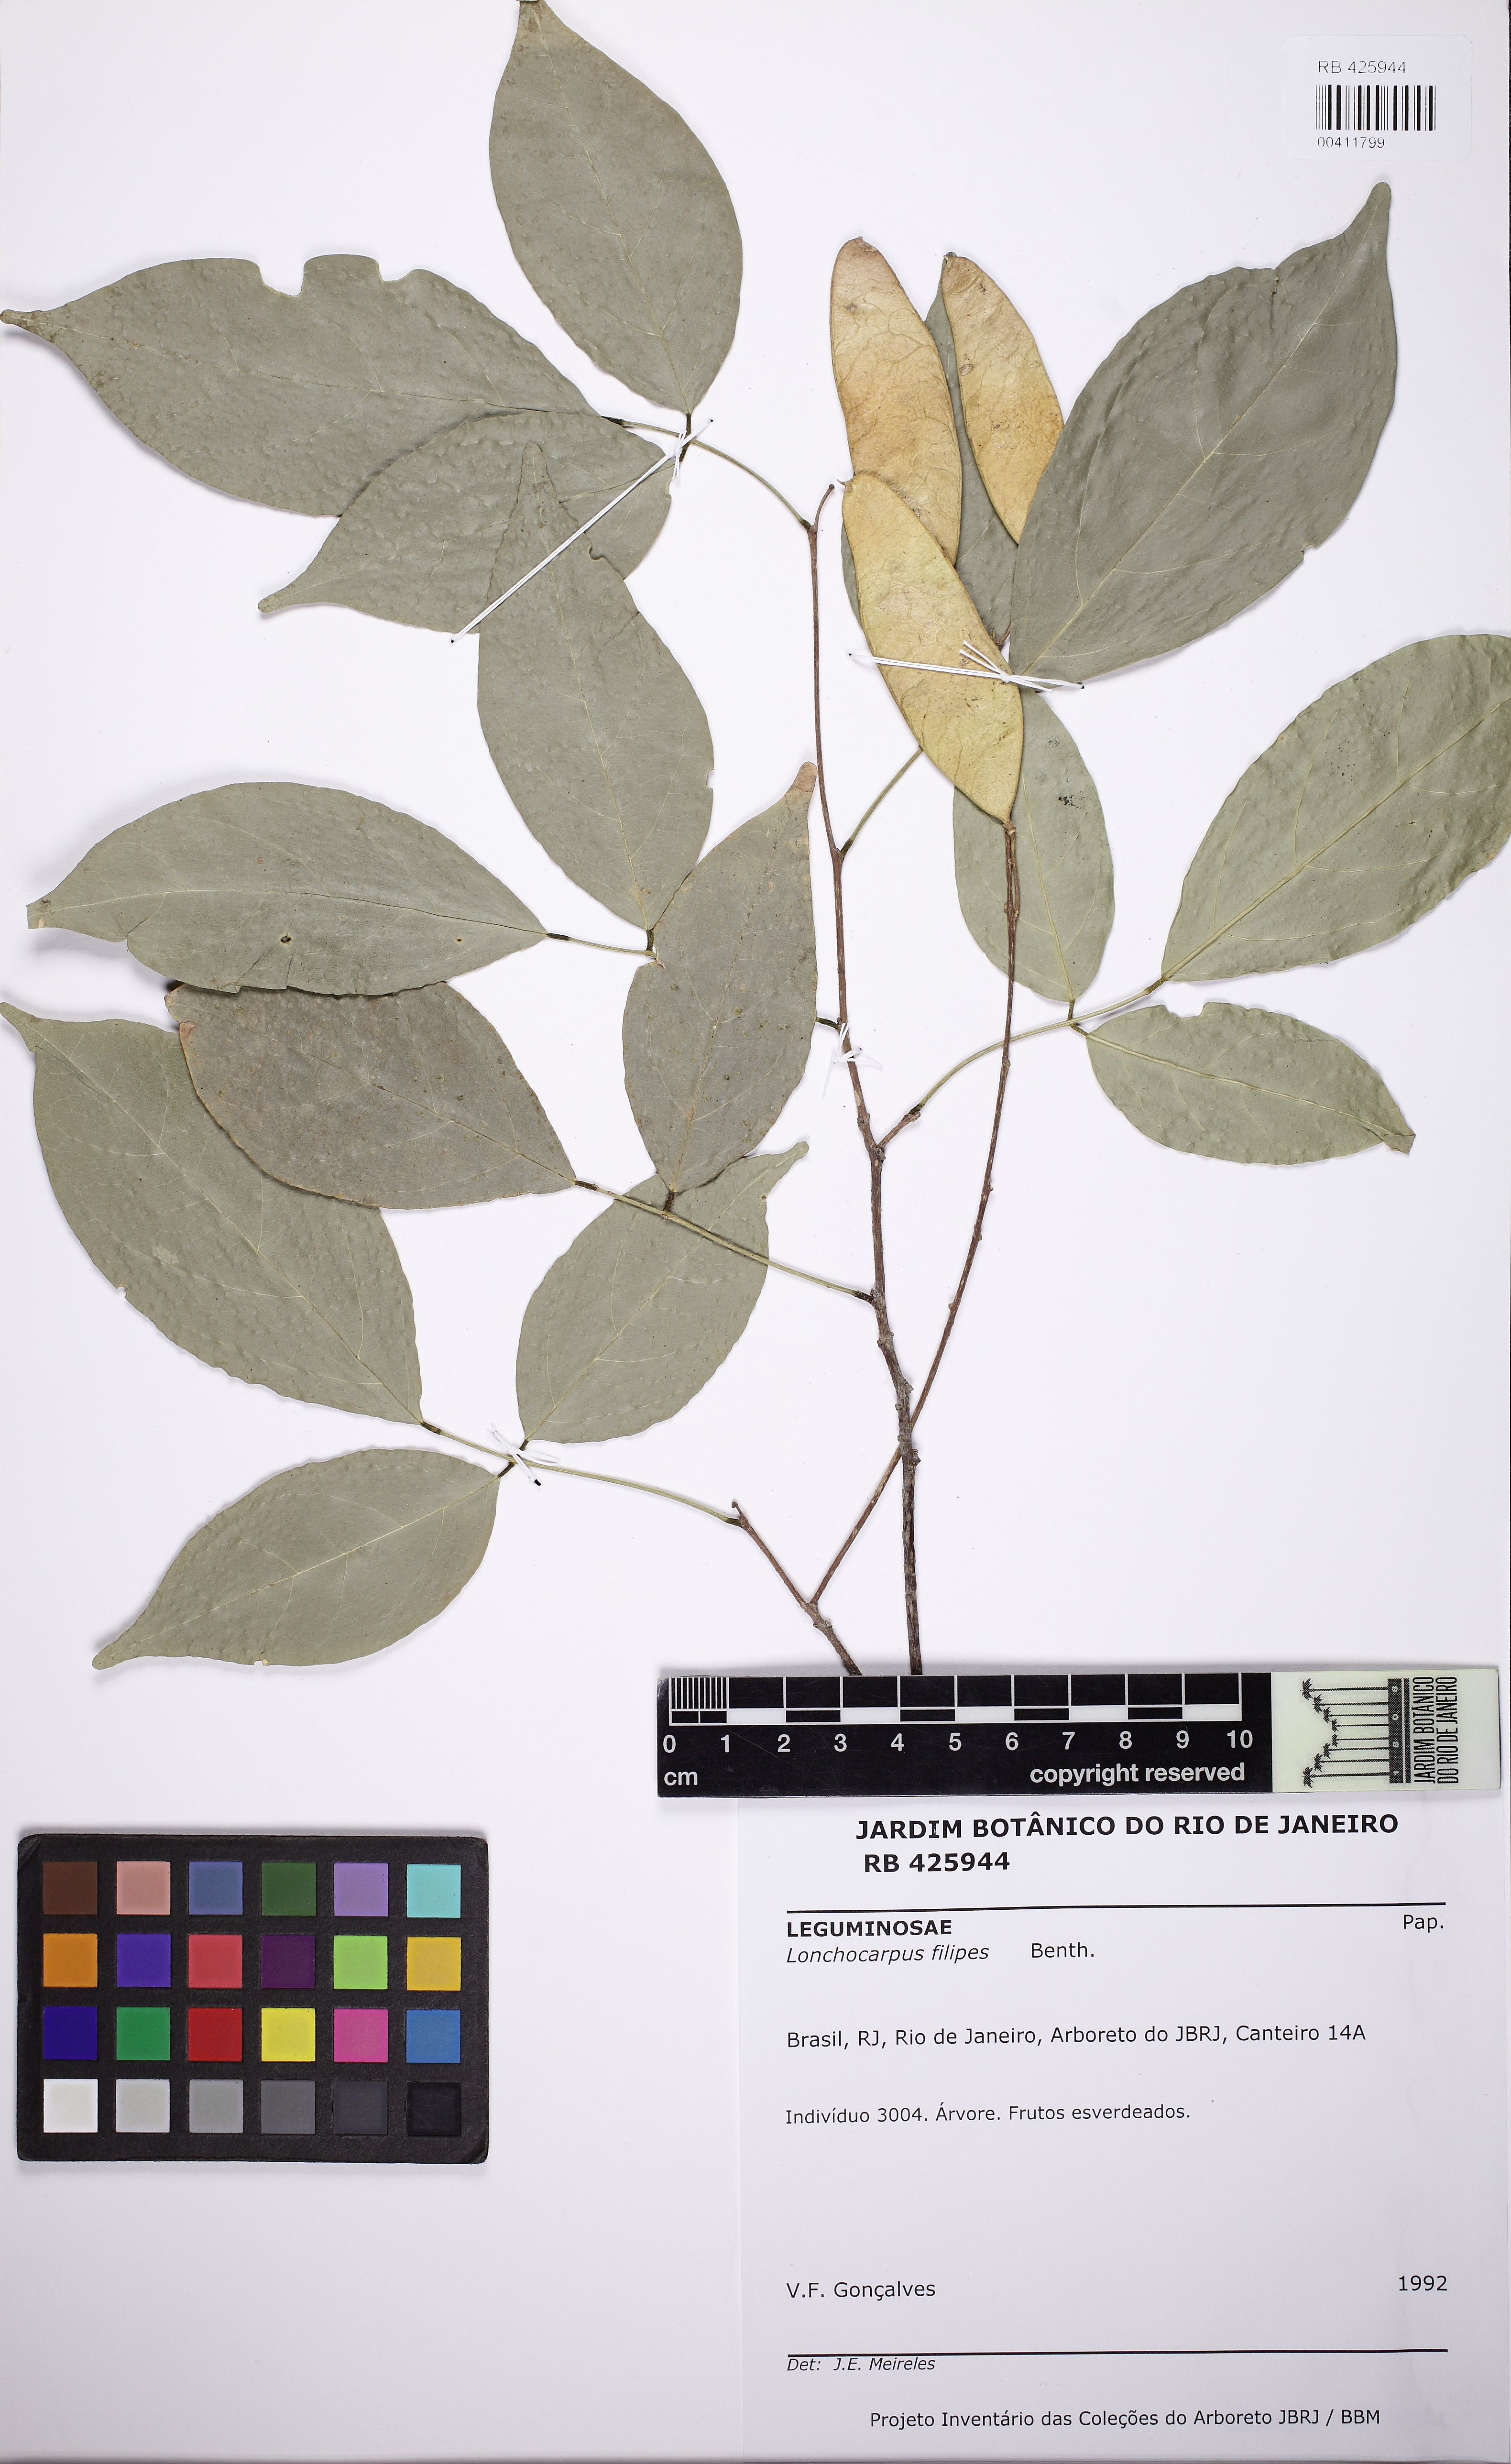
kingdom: Plantae
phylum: Tracheophyta
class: Magnoliopsida
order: Fabales
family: Fabaceae
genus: Muellera
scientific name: Muellera filipes
